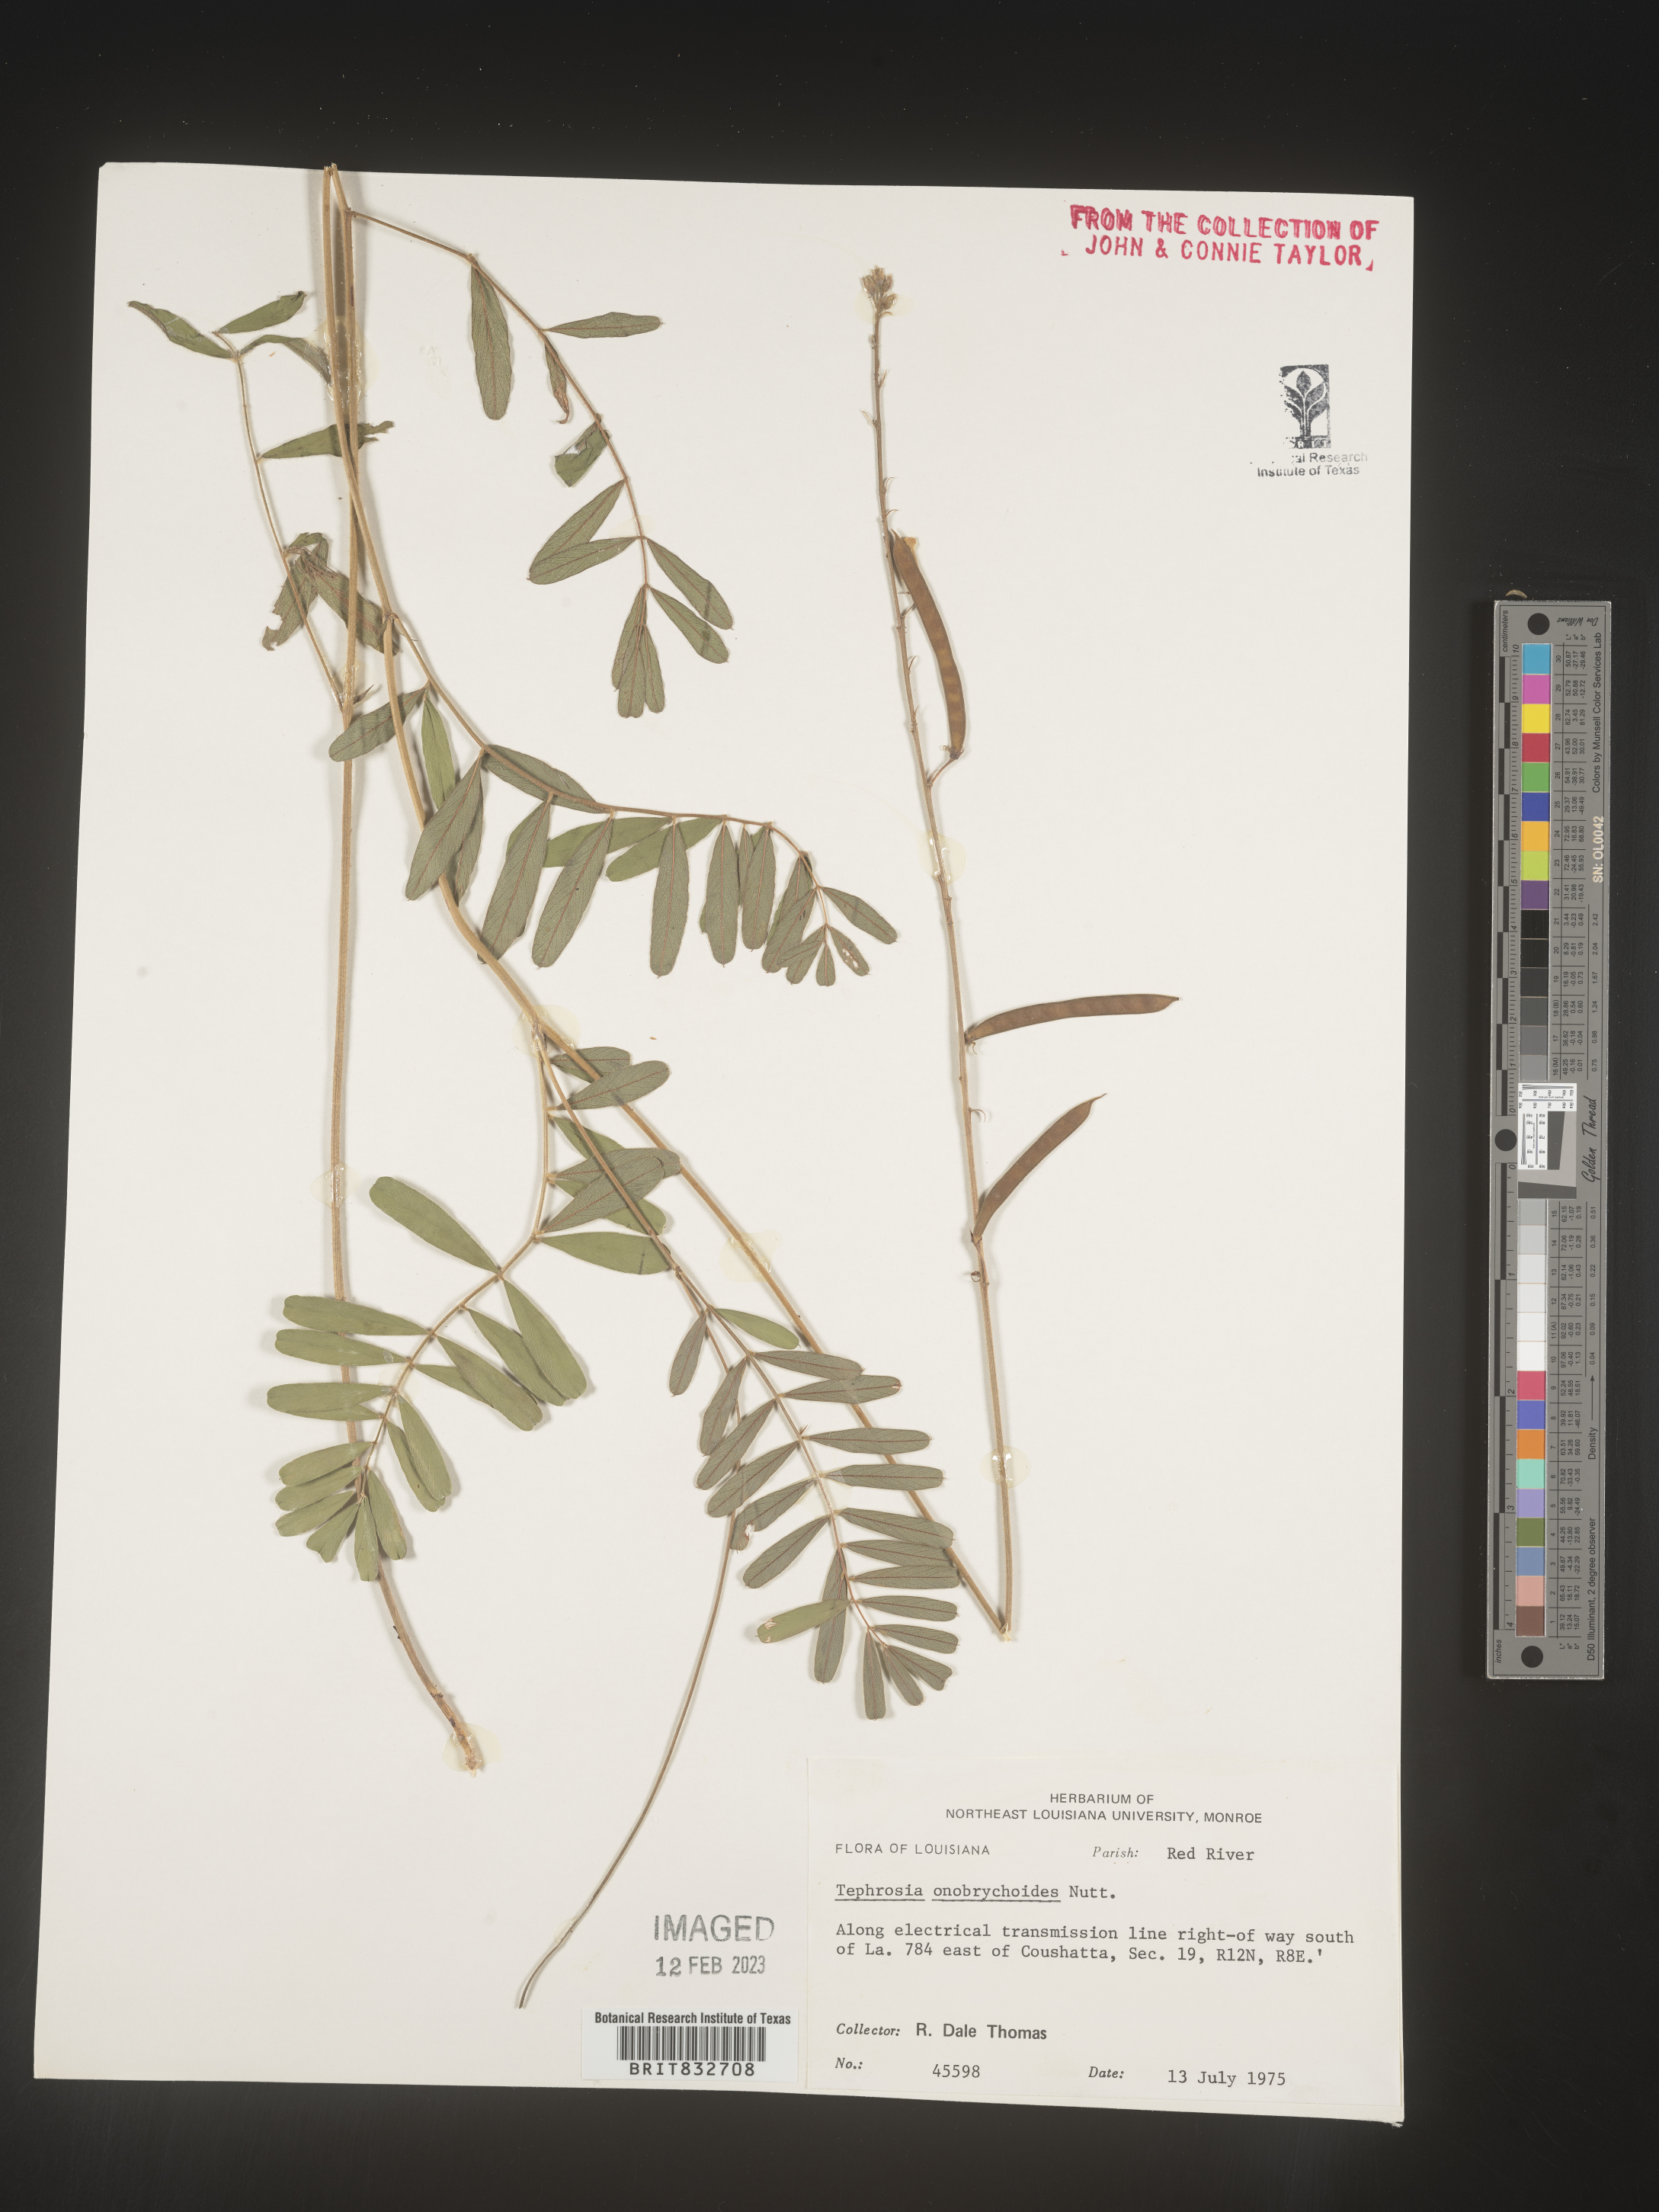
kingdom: Plantae
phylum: Tracheophyta
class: Magnoliopsida
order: Fabales
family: Fabaceae
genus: Tephrosia
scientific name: Tephrosia onobrychoides
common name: Multi-bloom hoary-pea
